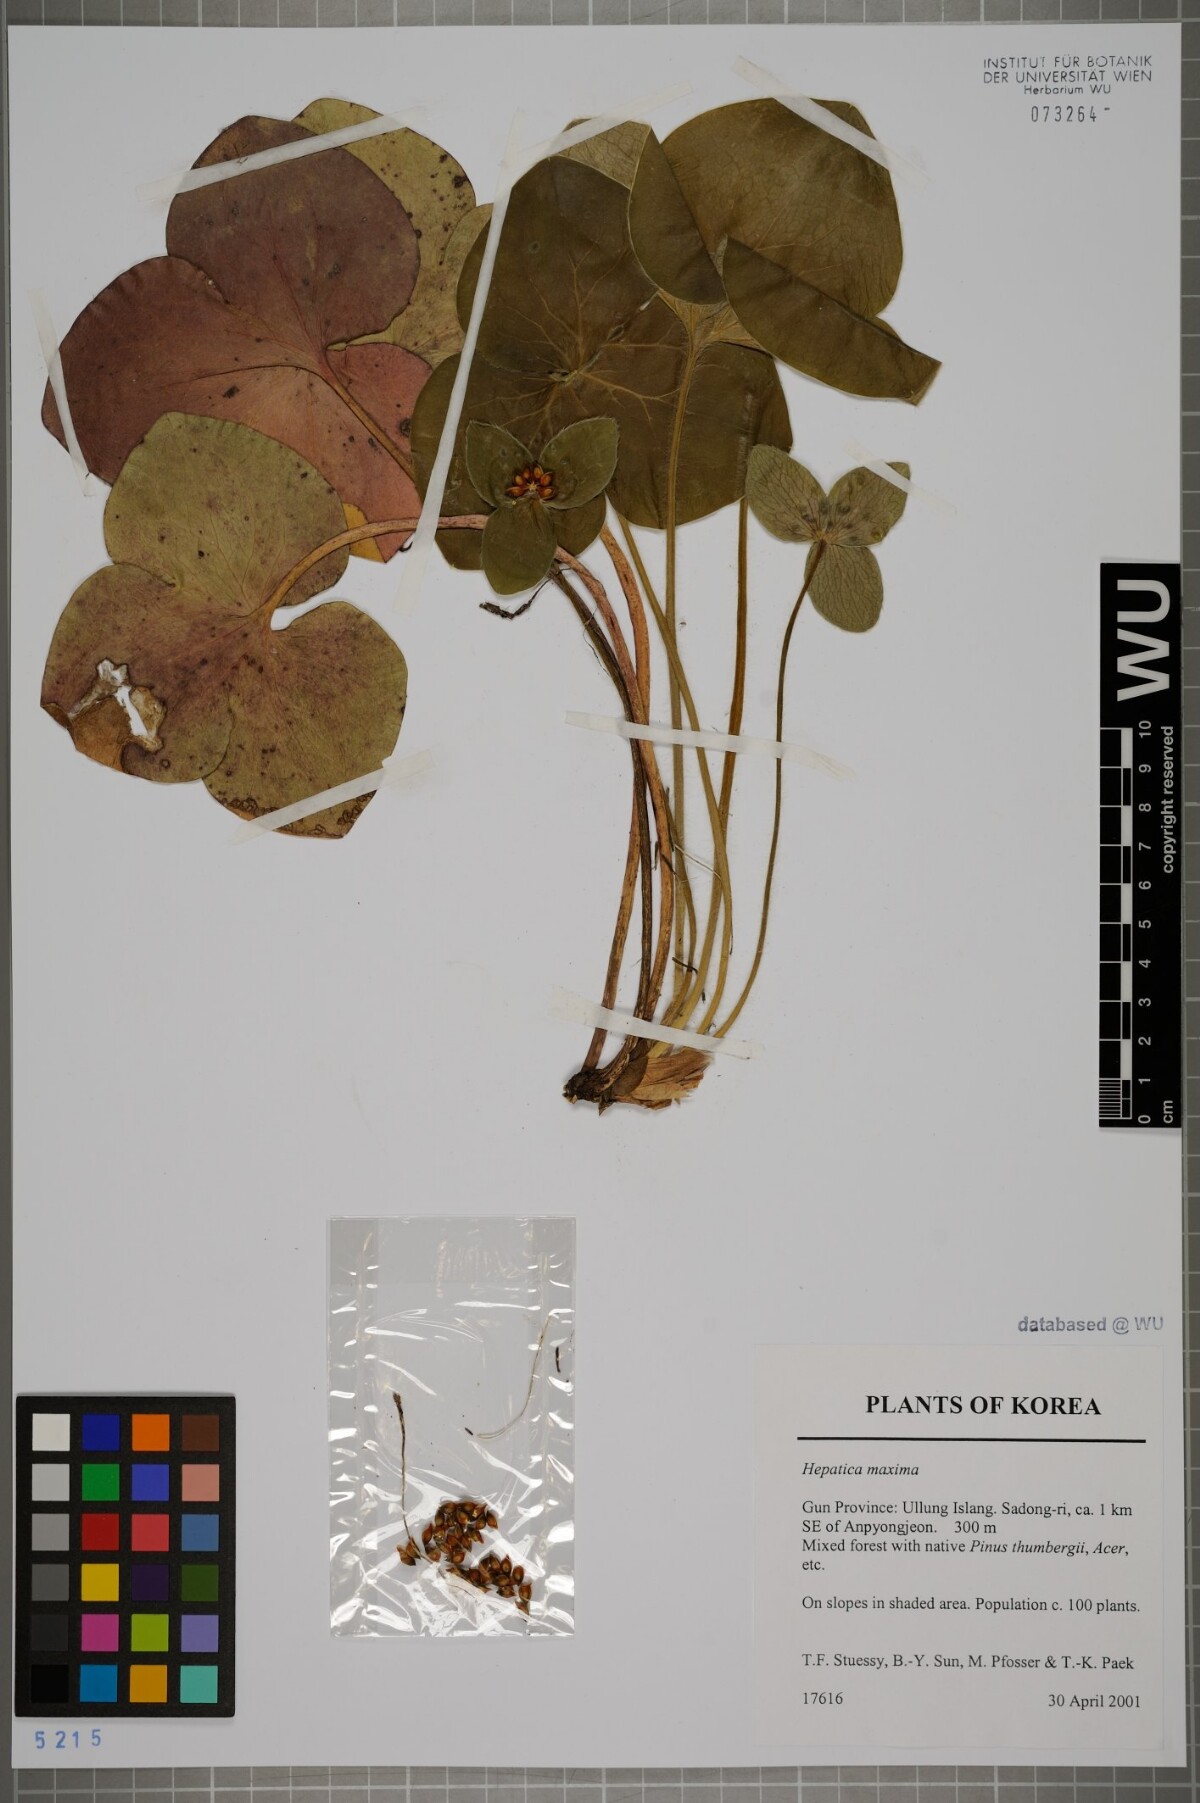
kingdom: Plantae
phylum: Tracheophyta
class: Magnoliopsida
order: Ranunculales
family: Ranunculaceae
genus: Hepatica
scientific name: Hepatica maxima
